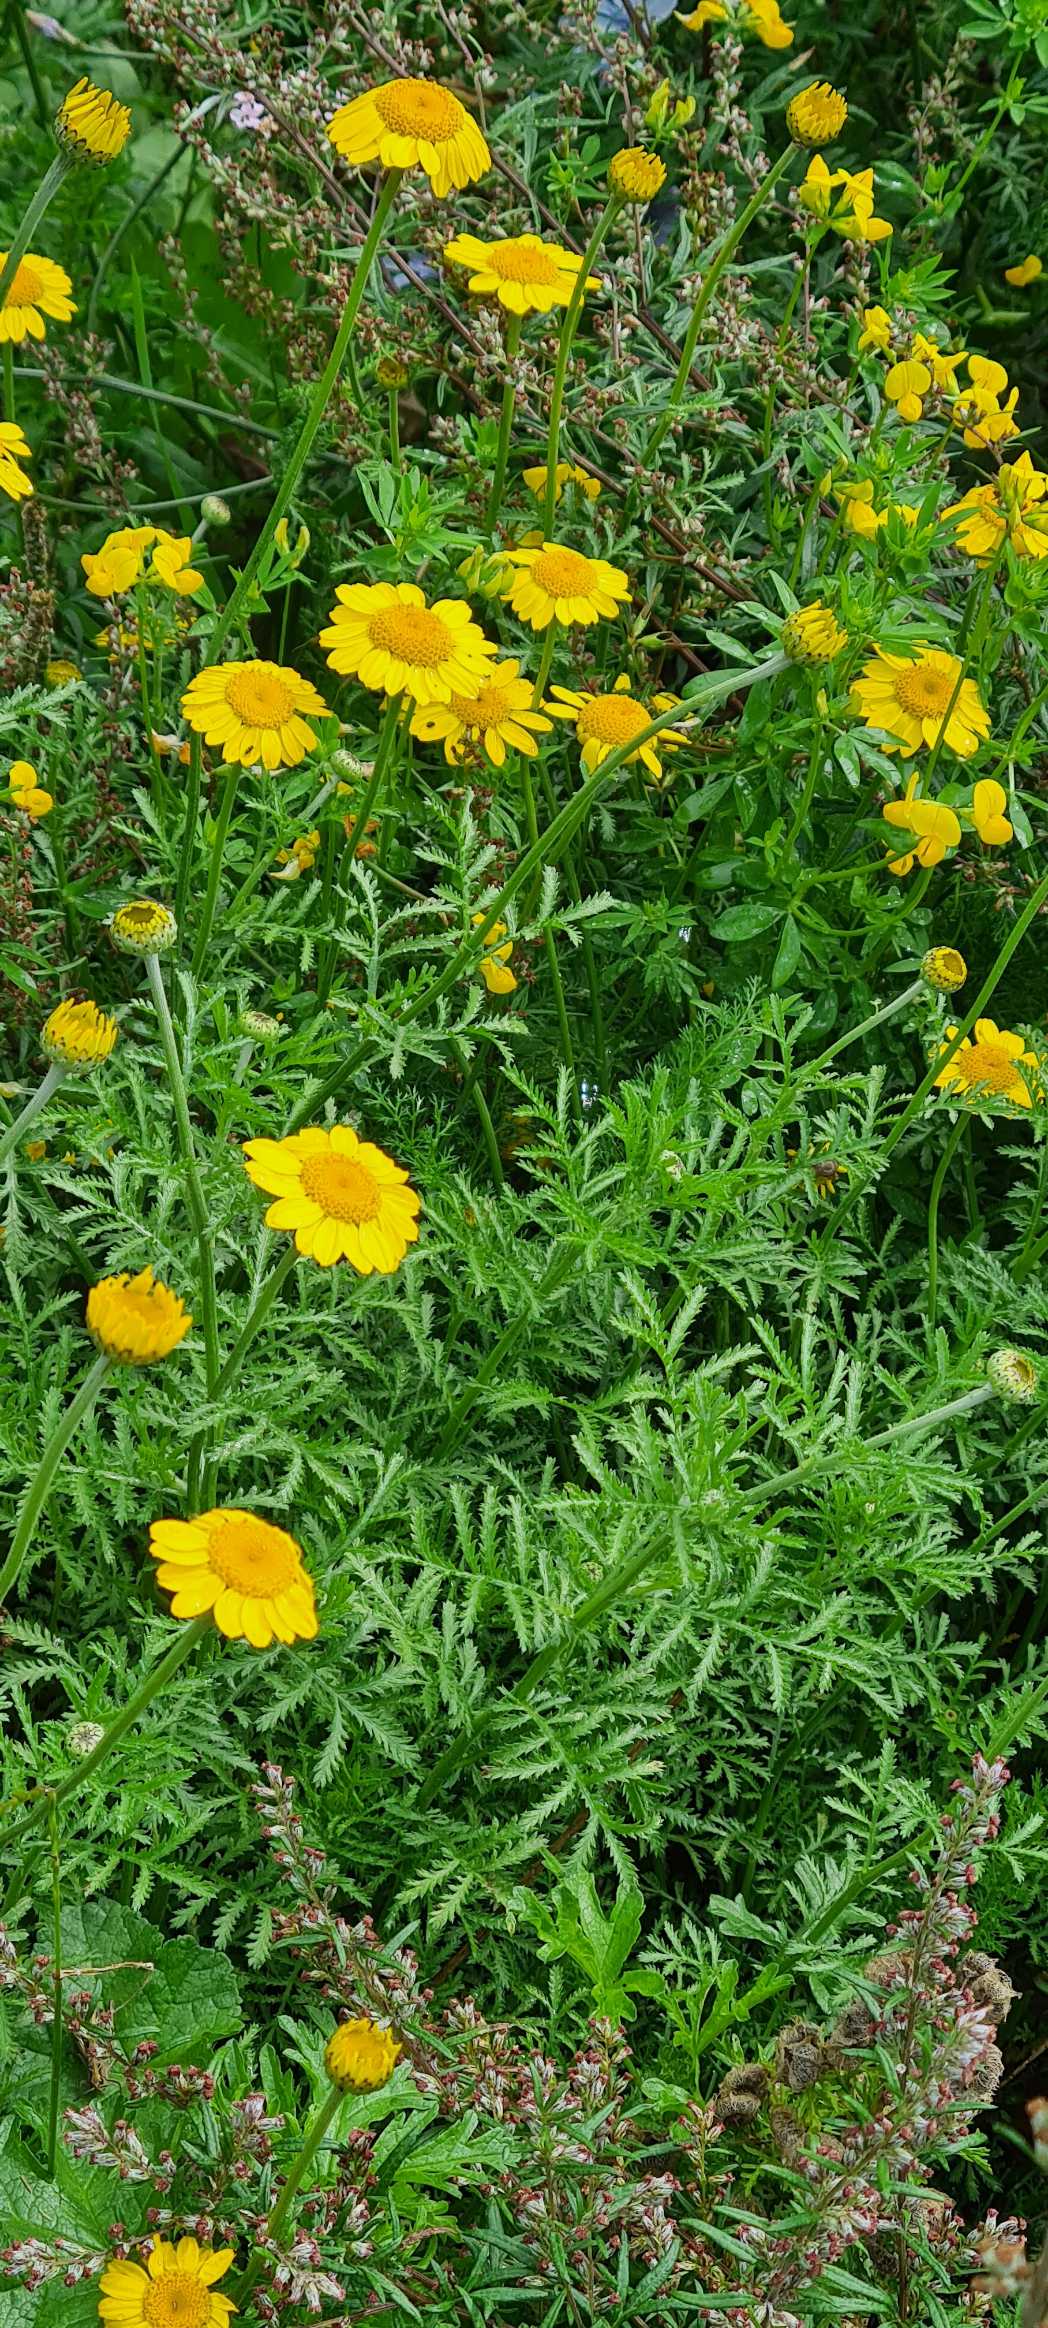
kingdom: Plantae
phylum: Tracheophyta
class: Magnoliopsida
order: Asterales
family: Asteraceae
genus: Cota
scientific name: Cota tinctoria
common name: Farve-gåseurt
